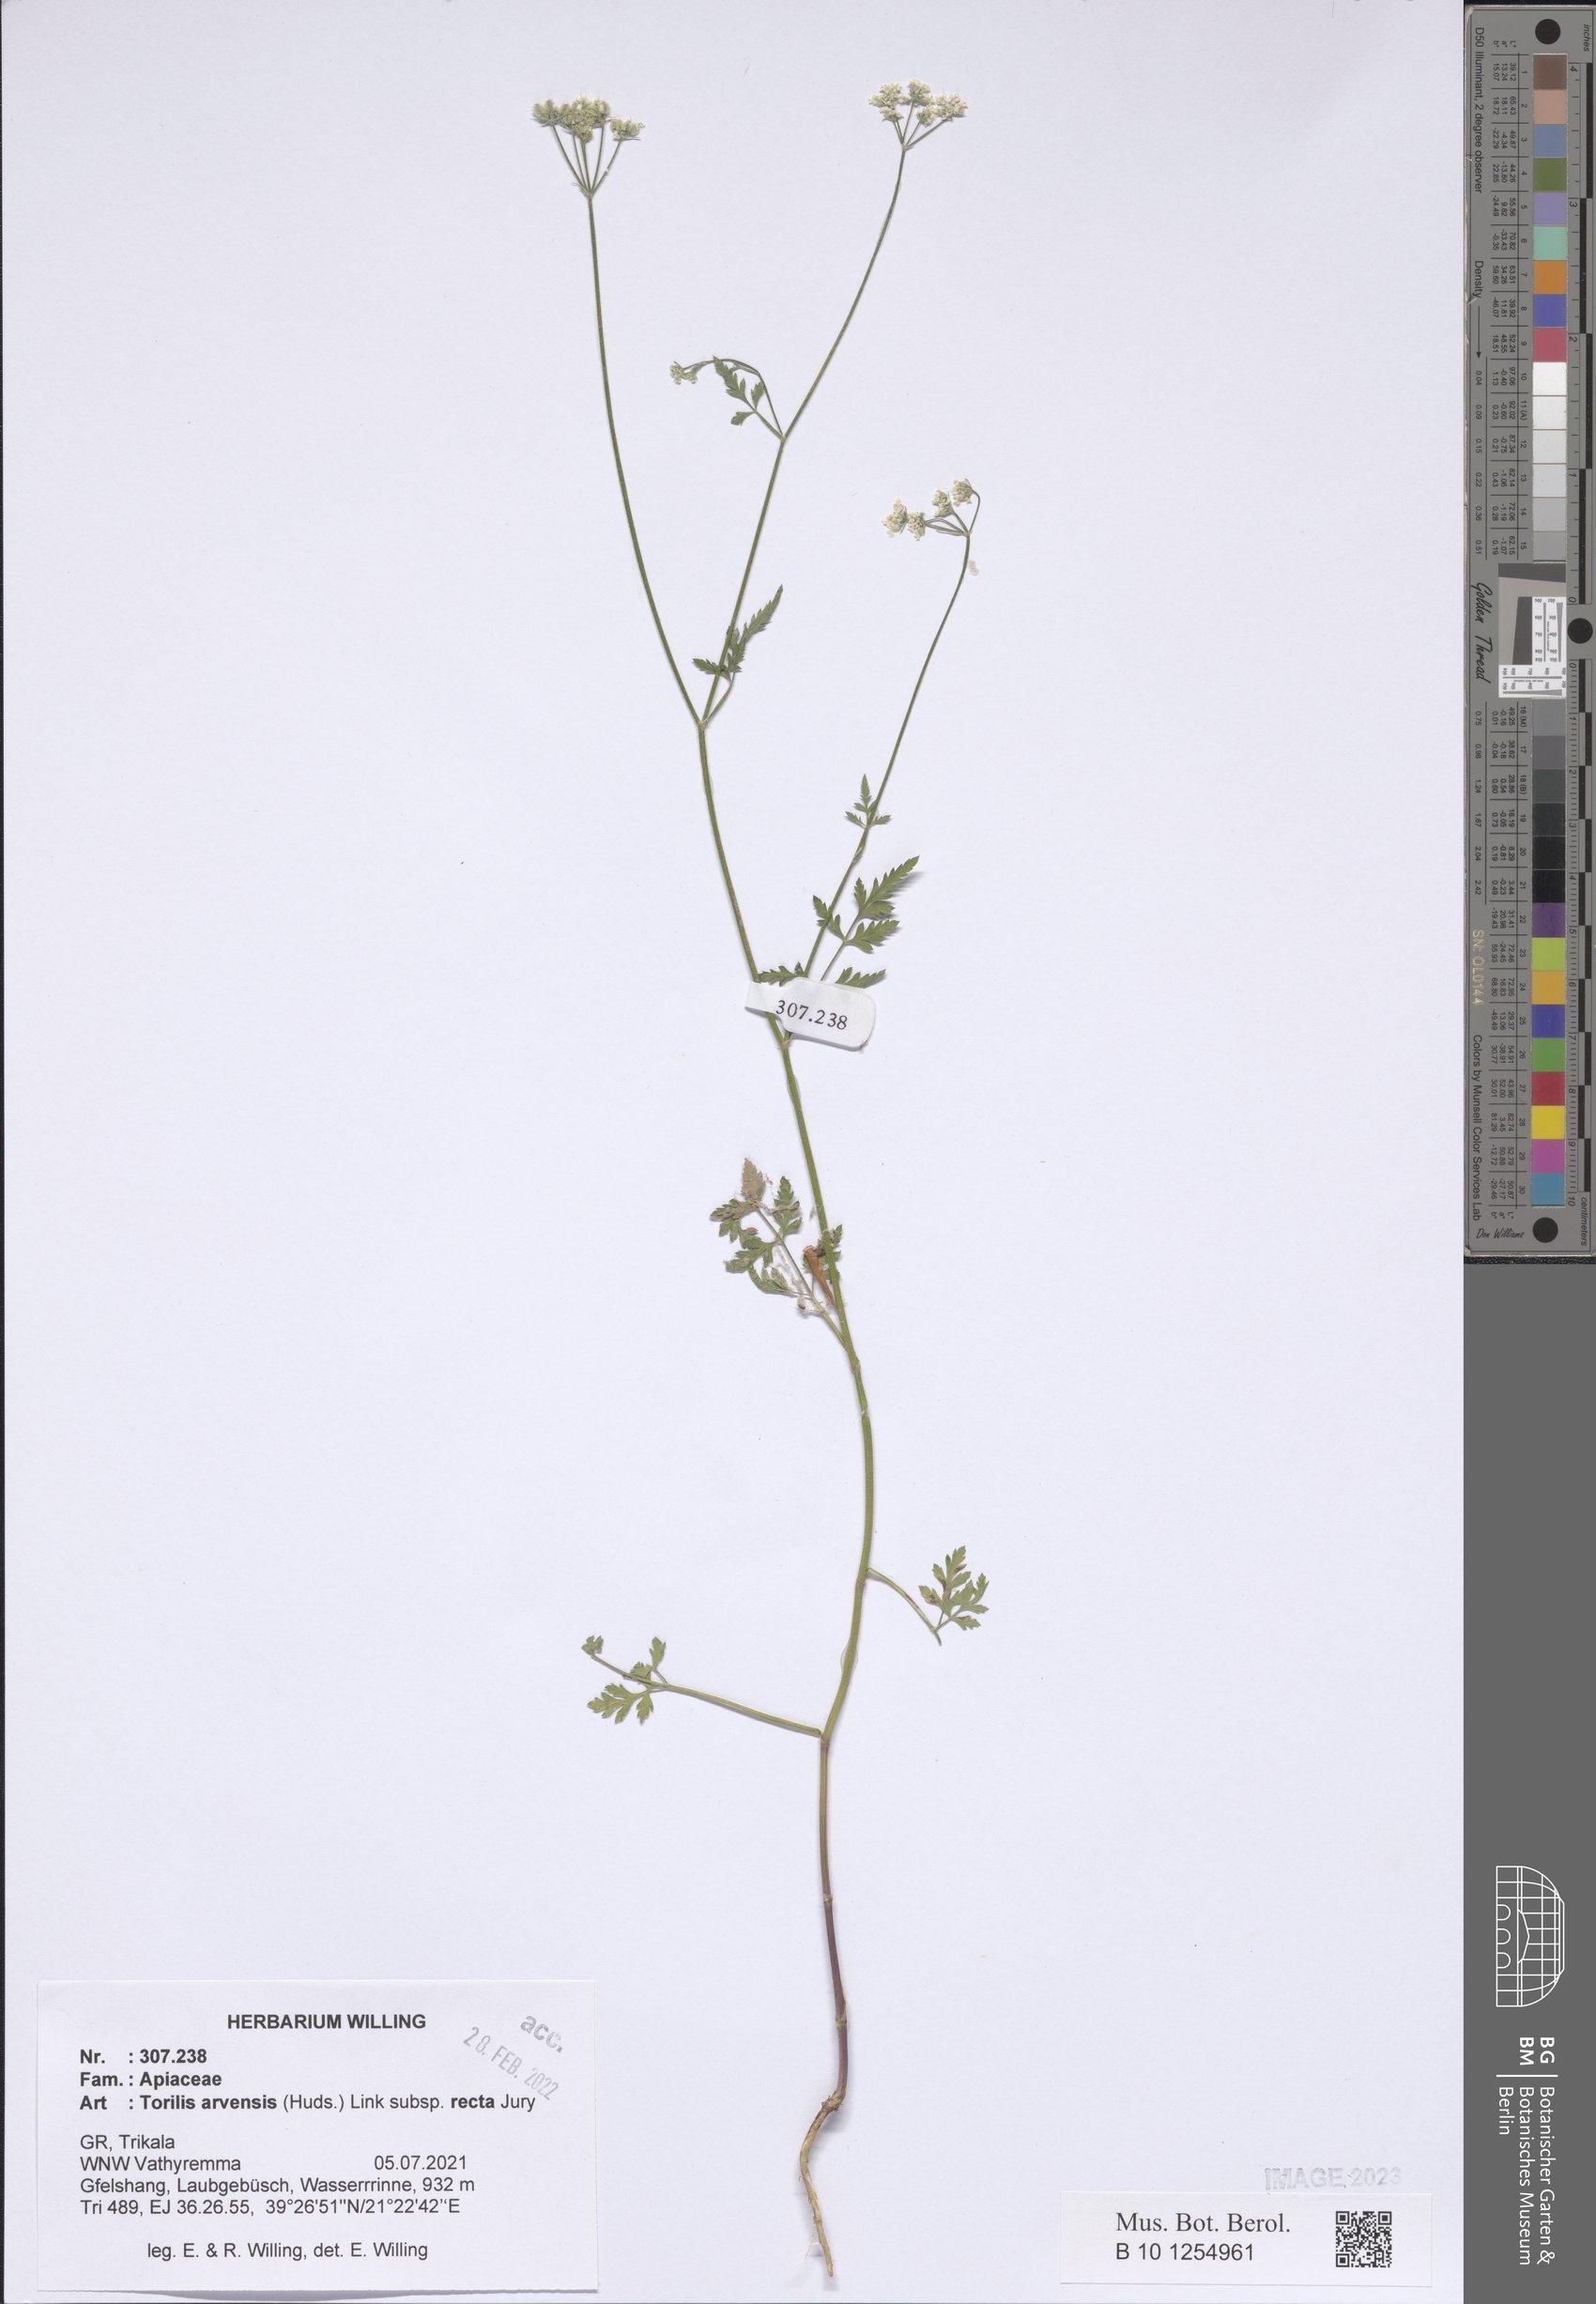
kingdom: Plantae
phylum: Tracheophyta
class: Magnoliopsida
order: Apiales
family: Apiaceae
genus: Torilis
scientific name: Torilis arvensis
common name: Spreading hedge-parsley
